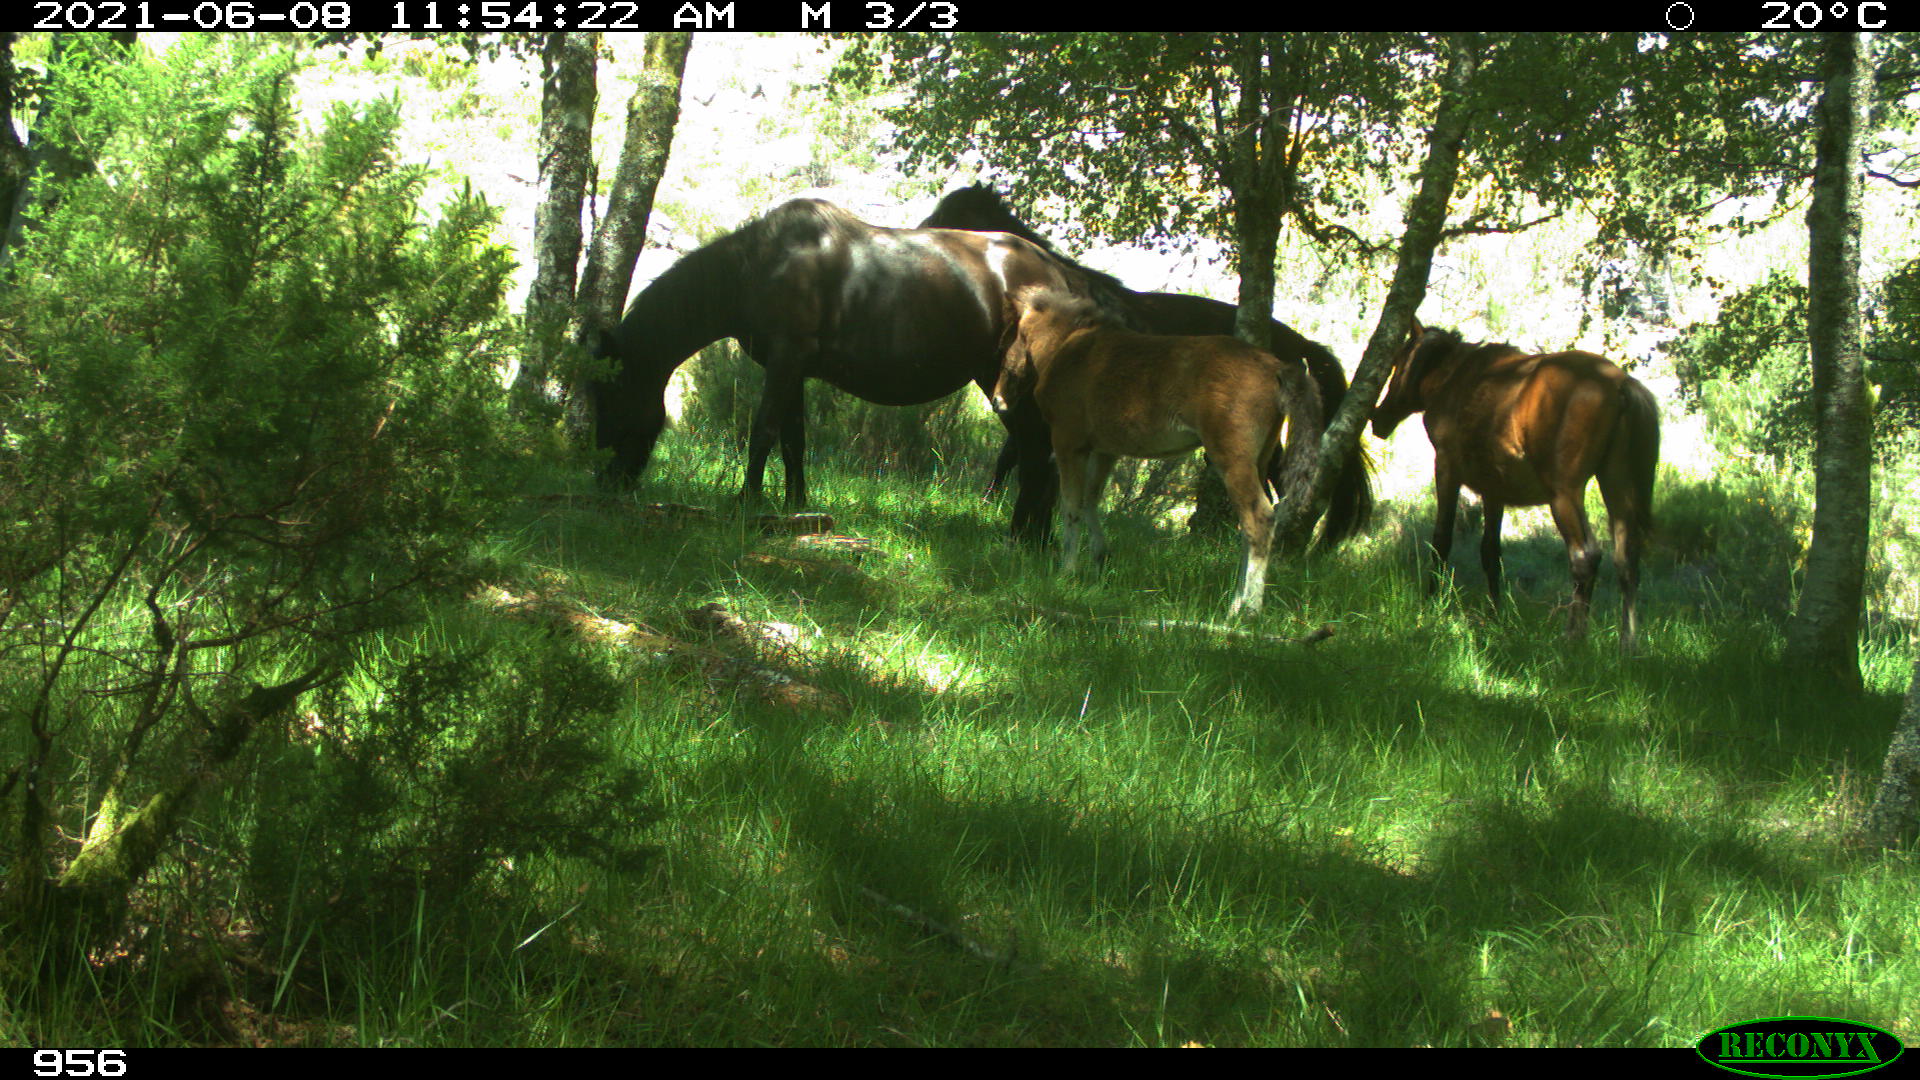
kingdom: Animalia
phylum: Chordata
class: Mammalia
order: Perissodactyla
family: Equidae
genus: Equus
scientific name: Equus caballus
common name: Horse
